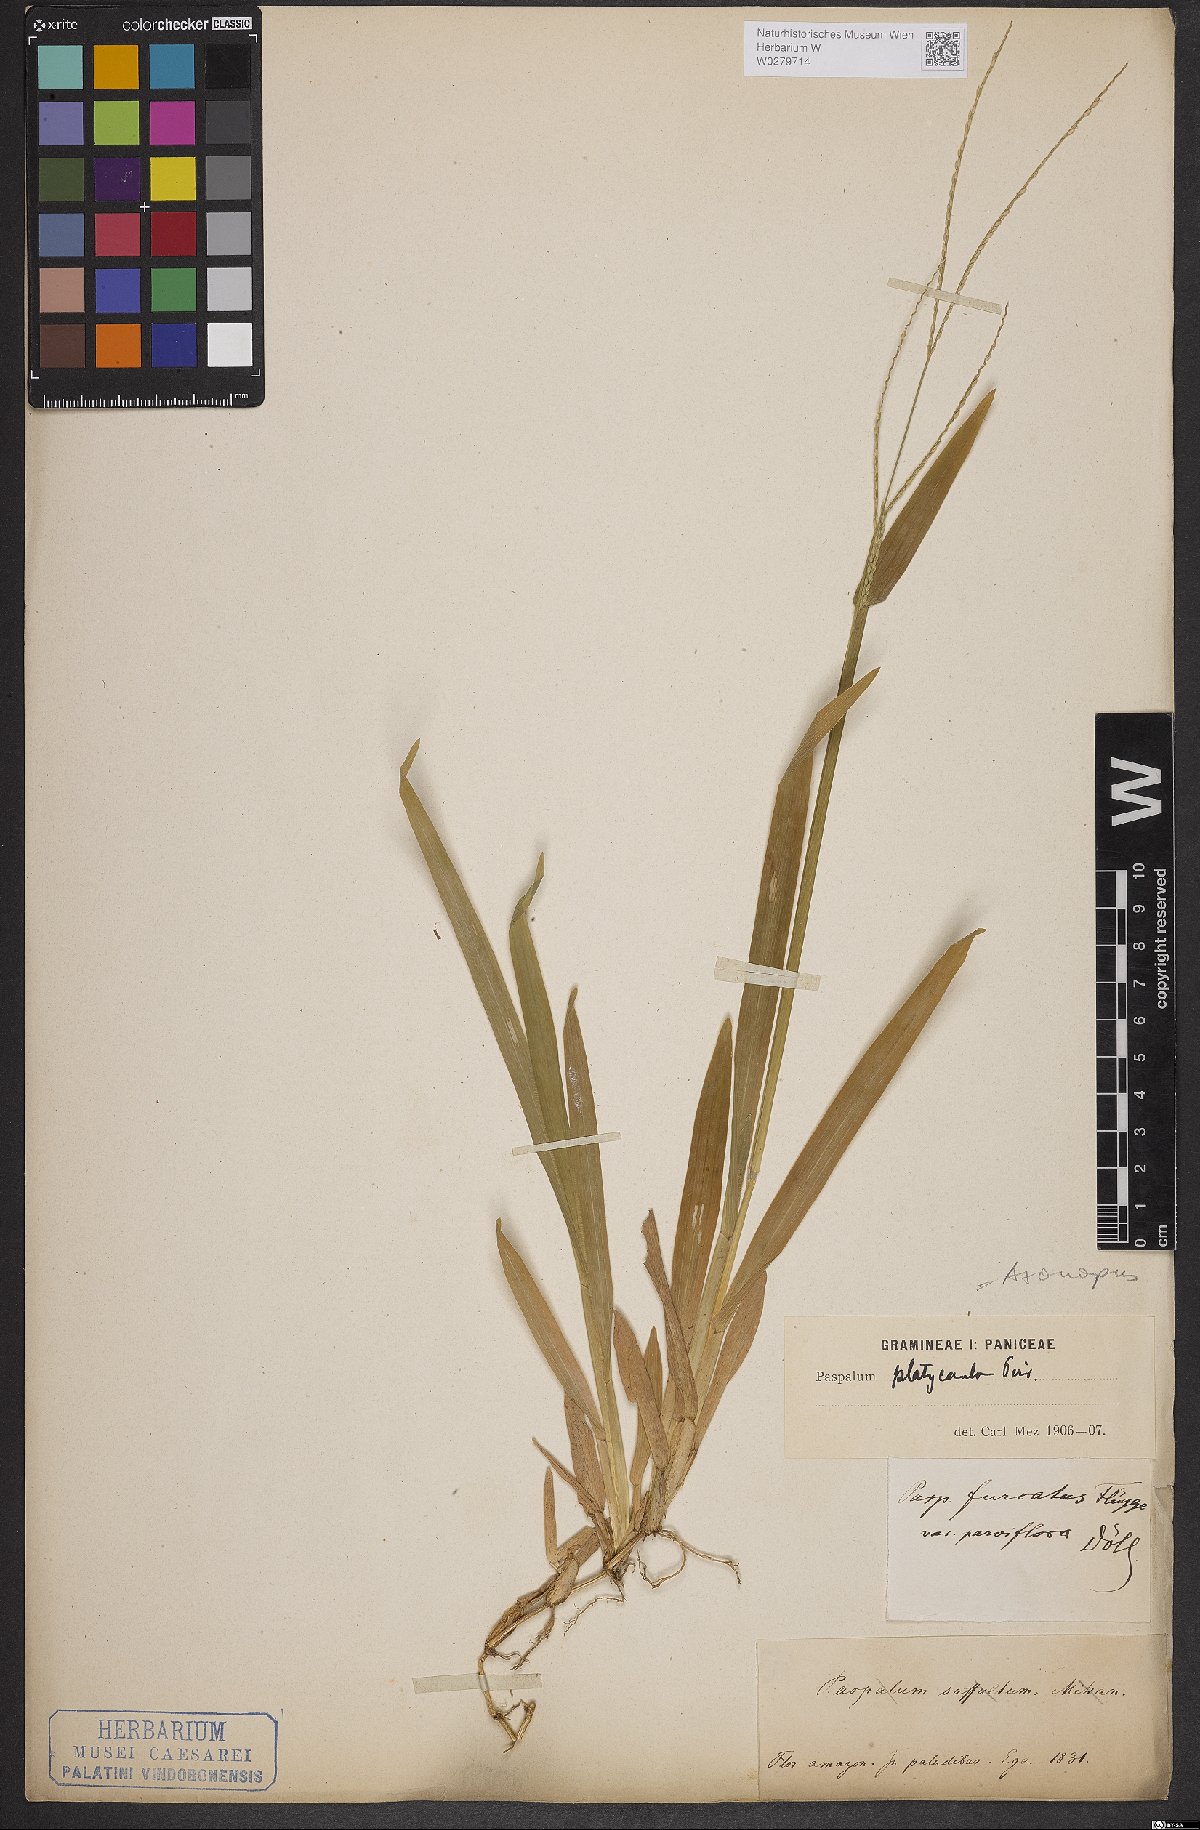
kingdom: Plantae
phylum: Tracheophyta
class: Liliopsida
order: Poales
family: Poaceae
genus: Axonopus
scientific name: Axonopus compressus
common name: American carpet grass
